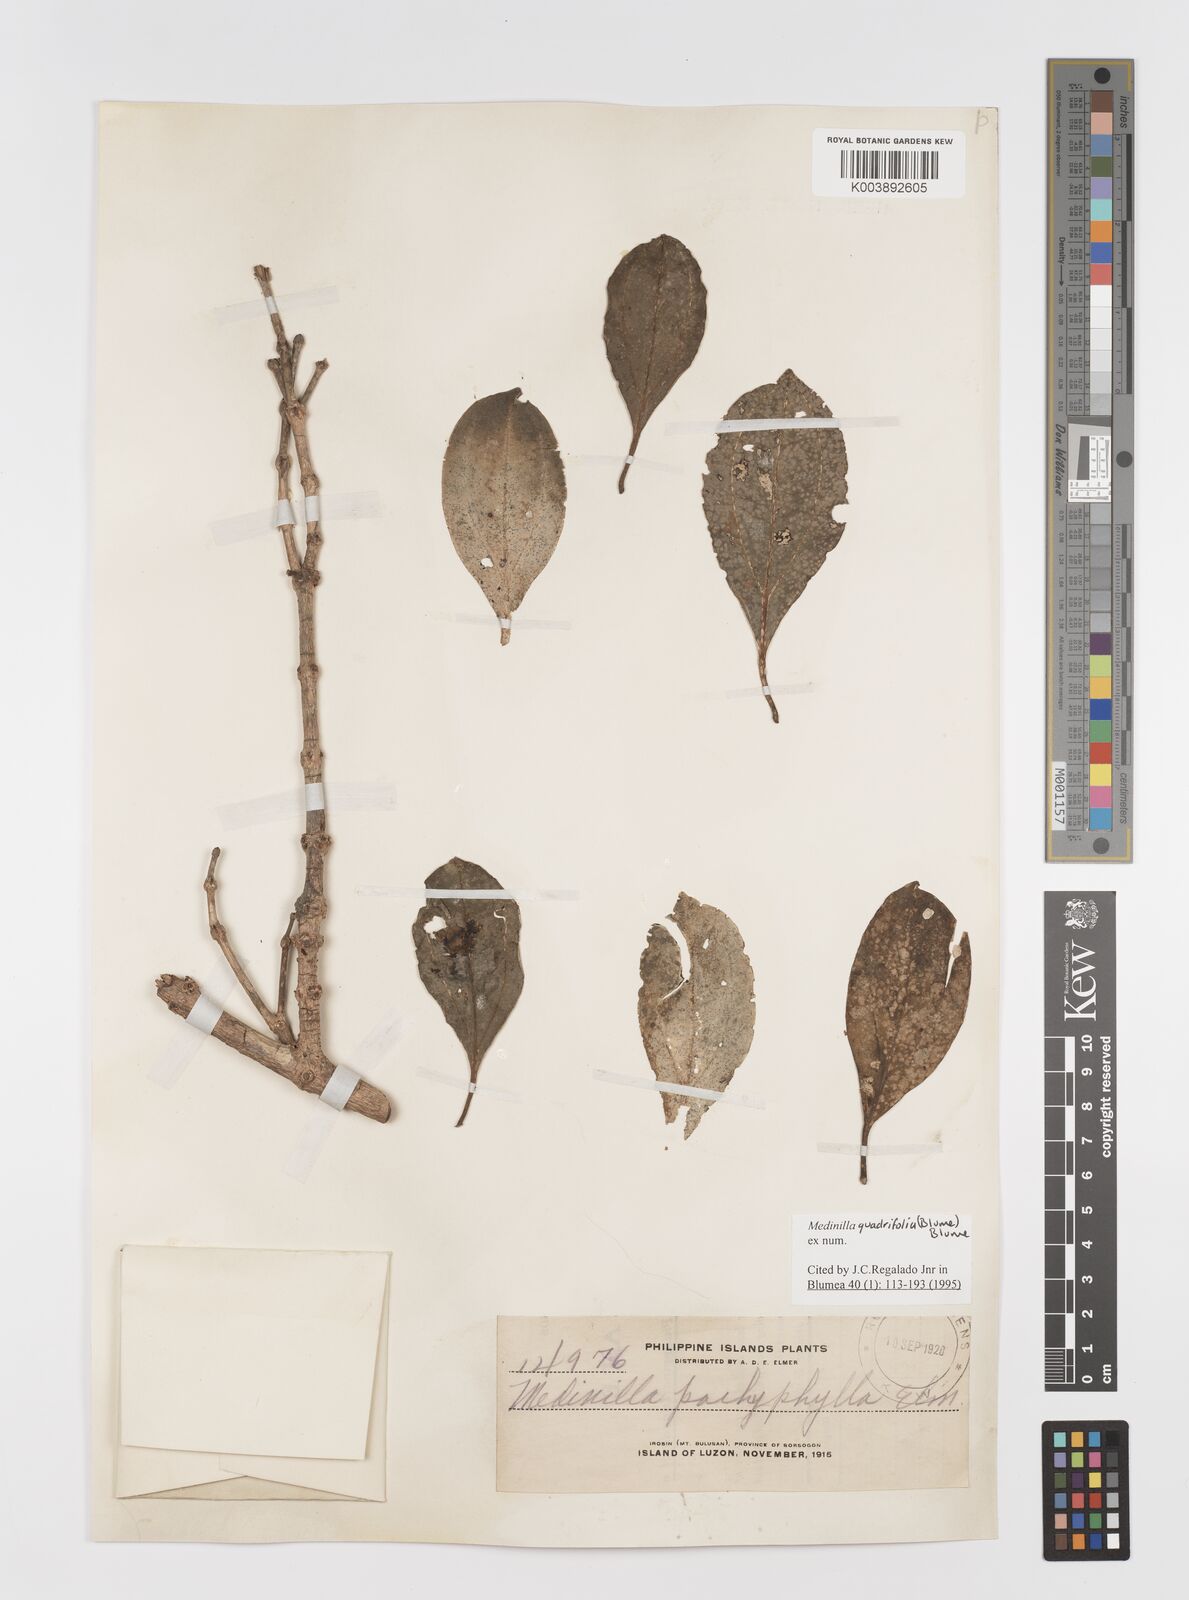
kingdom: Plantae
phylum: Tracheophyta
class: Magnoliopsida
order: Myrtales
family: Melastomataceae
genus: Medinilla
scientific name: Medinilla quadrifolia
